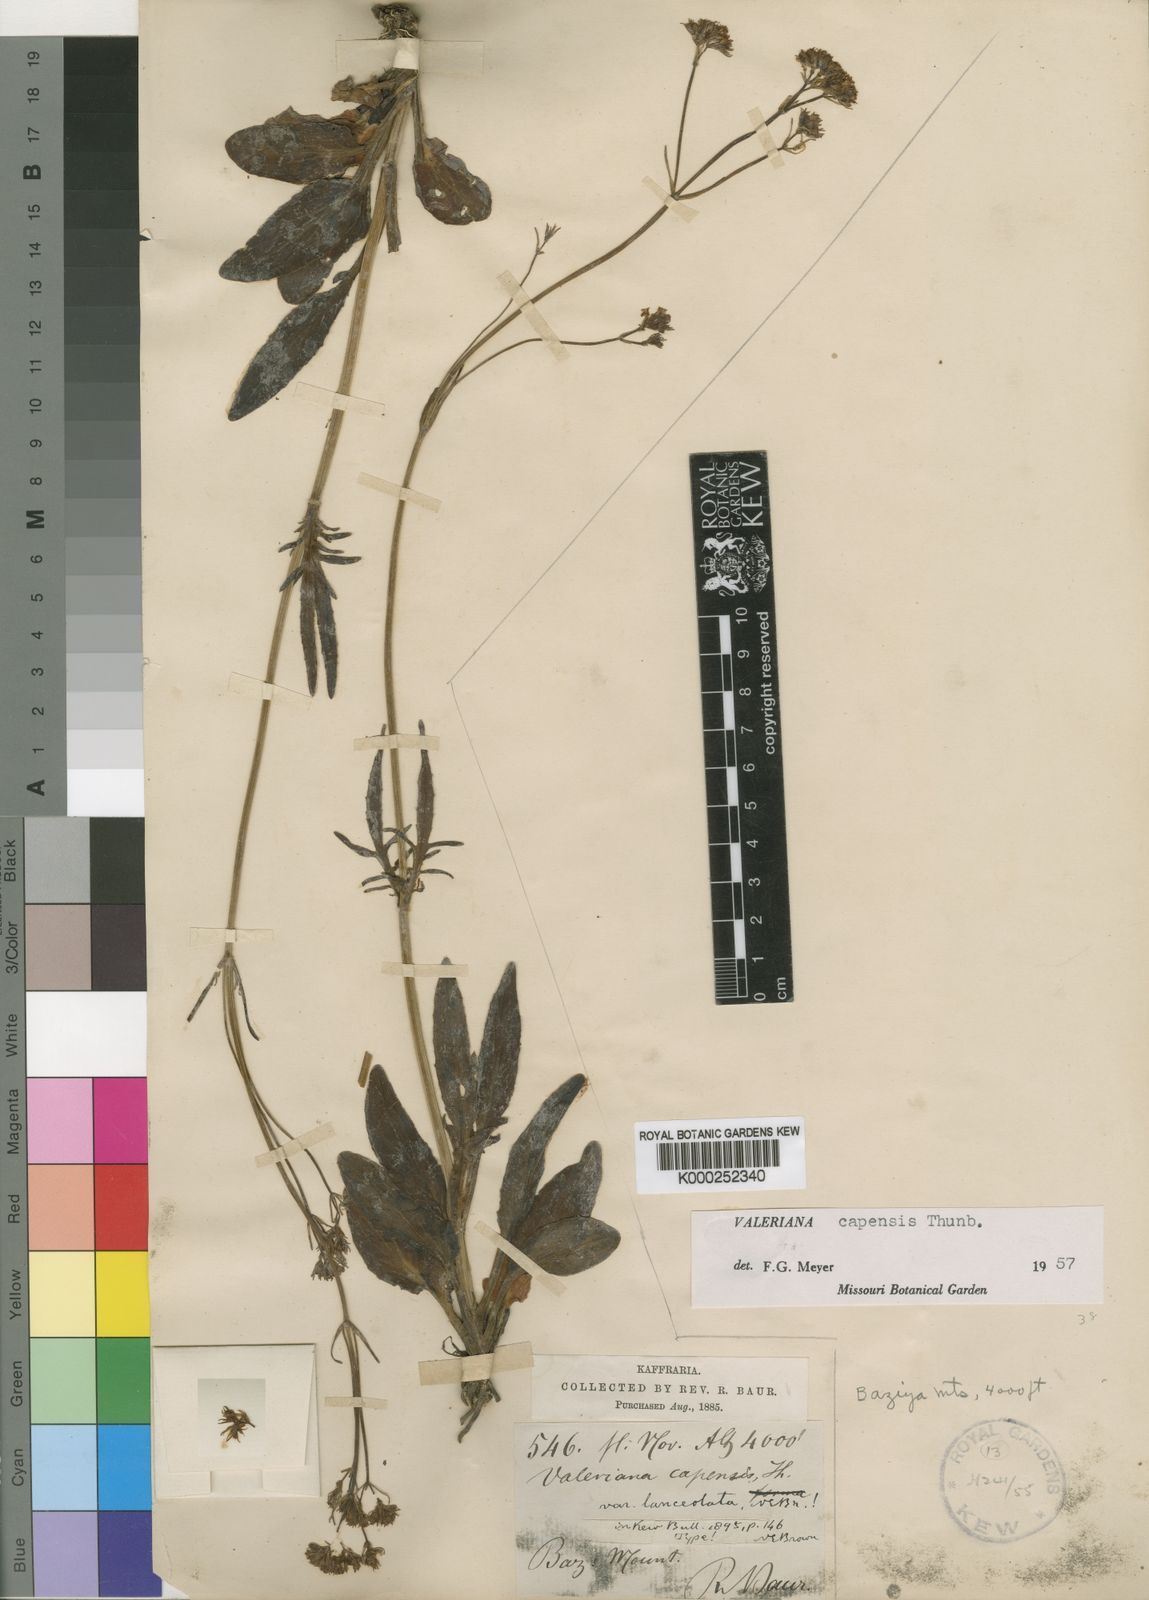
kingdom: Plantae
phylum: Tracheophyta
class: Magnoliopsida
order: Dipsacales
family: Caprifoliaceae
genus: Valeriana
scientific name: Valeriana capensis
